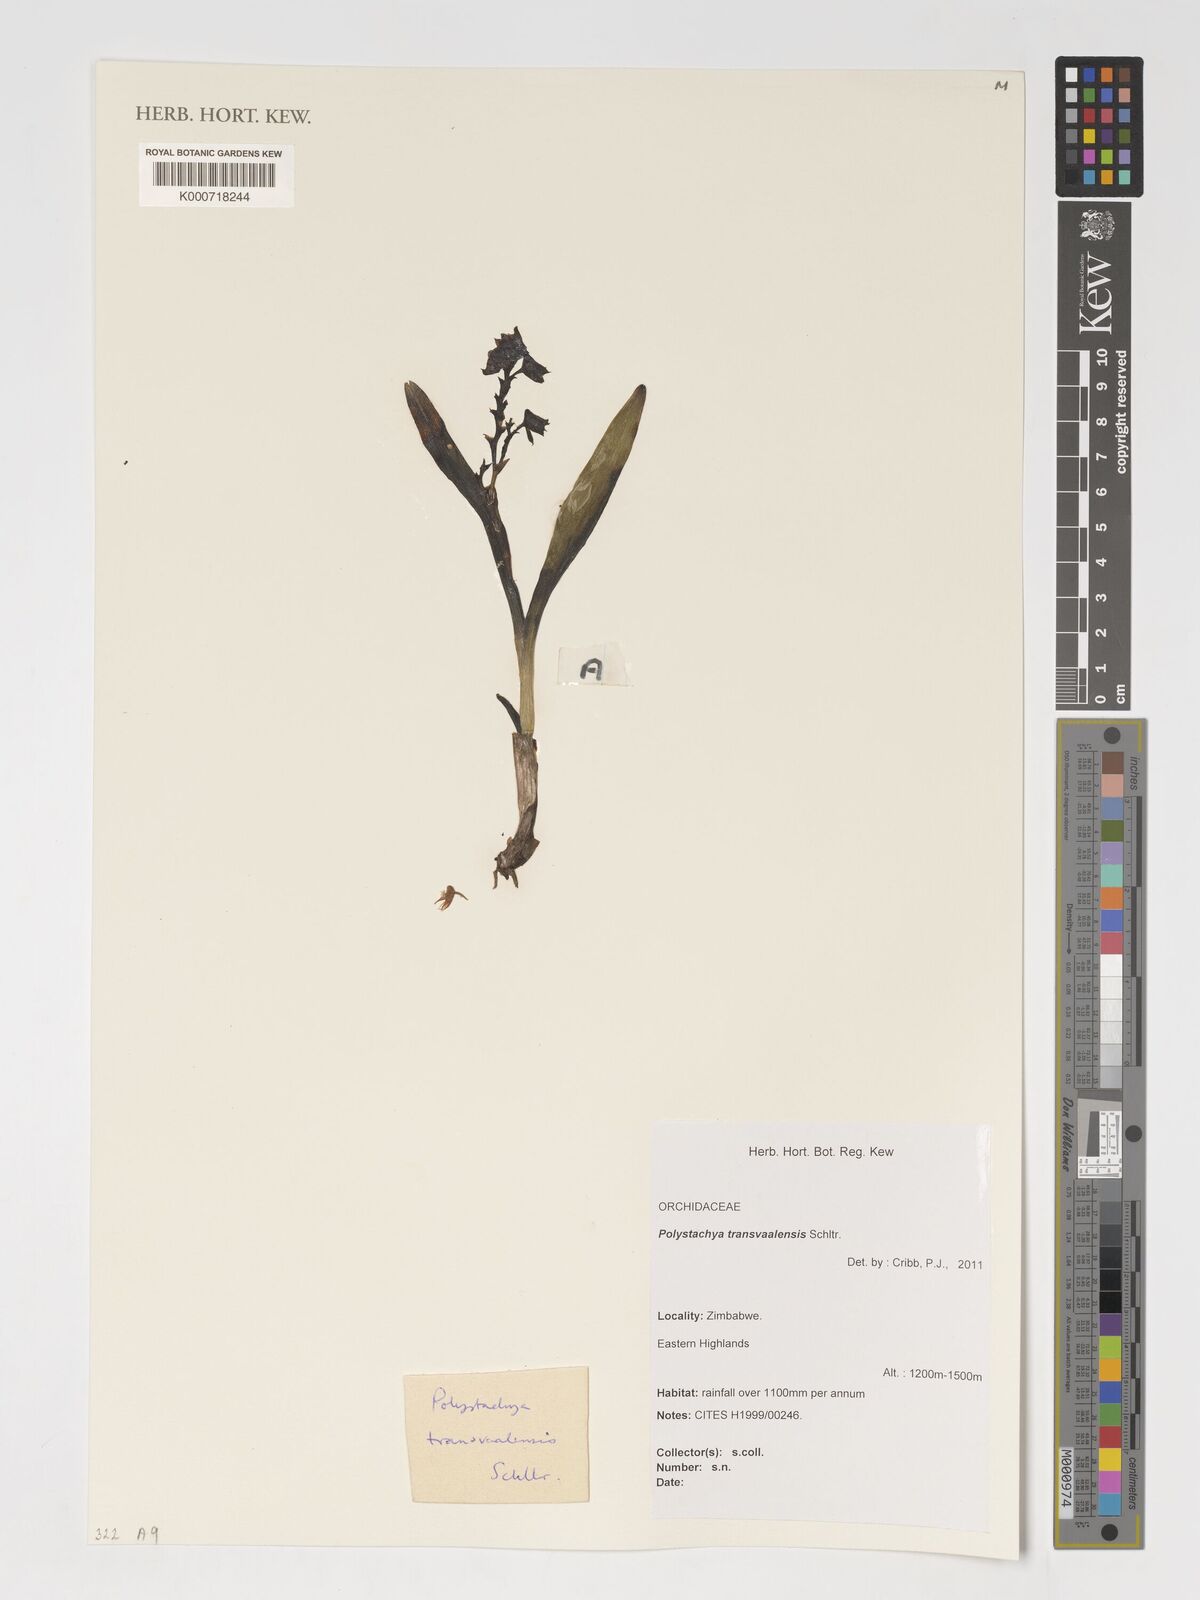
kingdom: Plantae
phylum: Tracheophyta
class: Liliopsida
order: Asparagales
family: Orchidaceae
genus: Polystachya
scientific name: Polystachya transvaalensis
